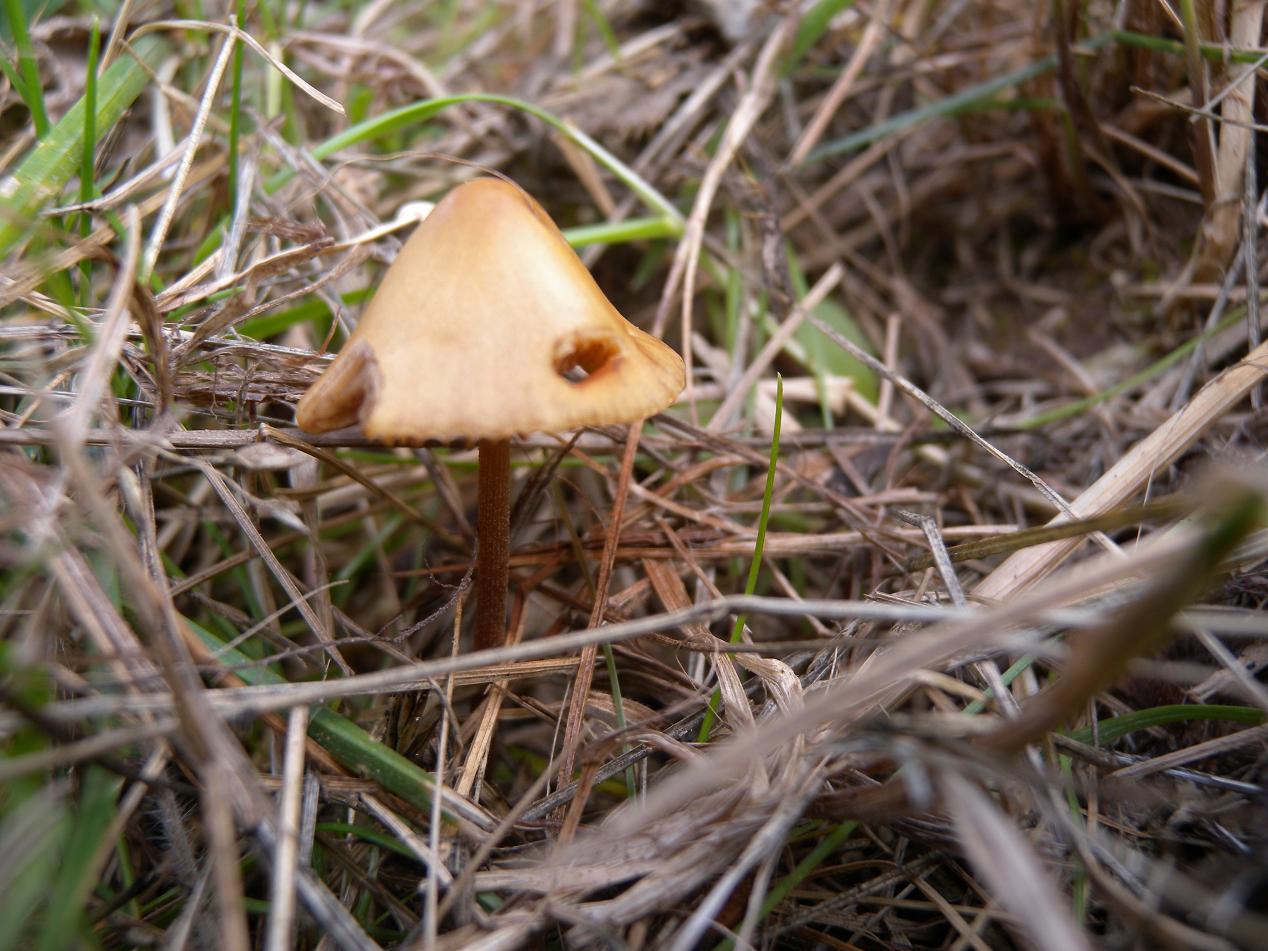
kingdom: Fungi
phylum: Basidiomycota
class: Agaricomycetes
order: Agaricales
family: Bolbitiaceae
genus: Conocybe
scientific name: Conocybe subpubescens
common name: krat-keglehat
